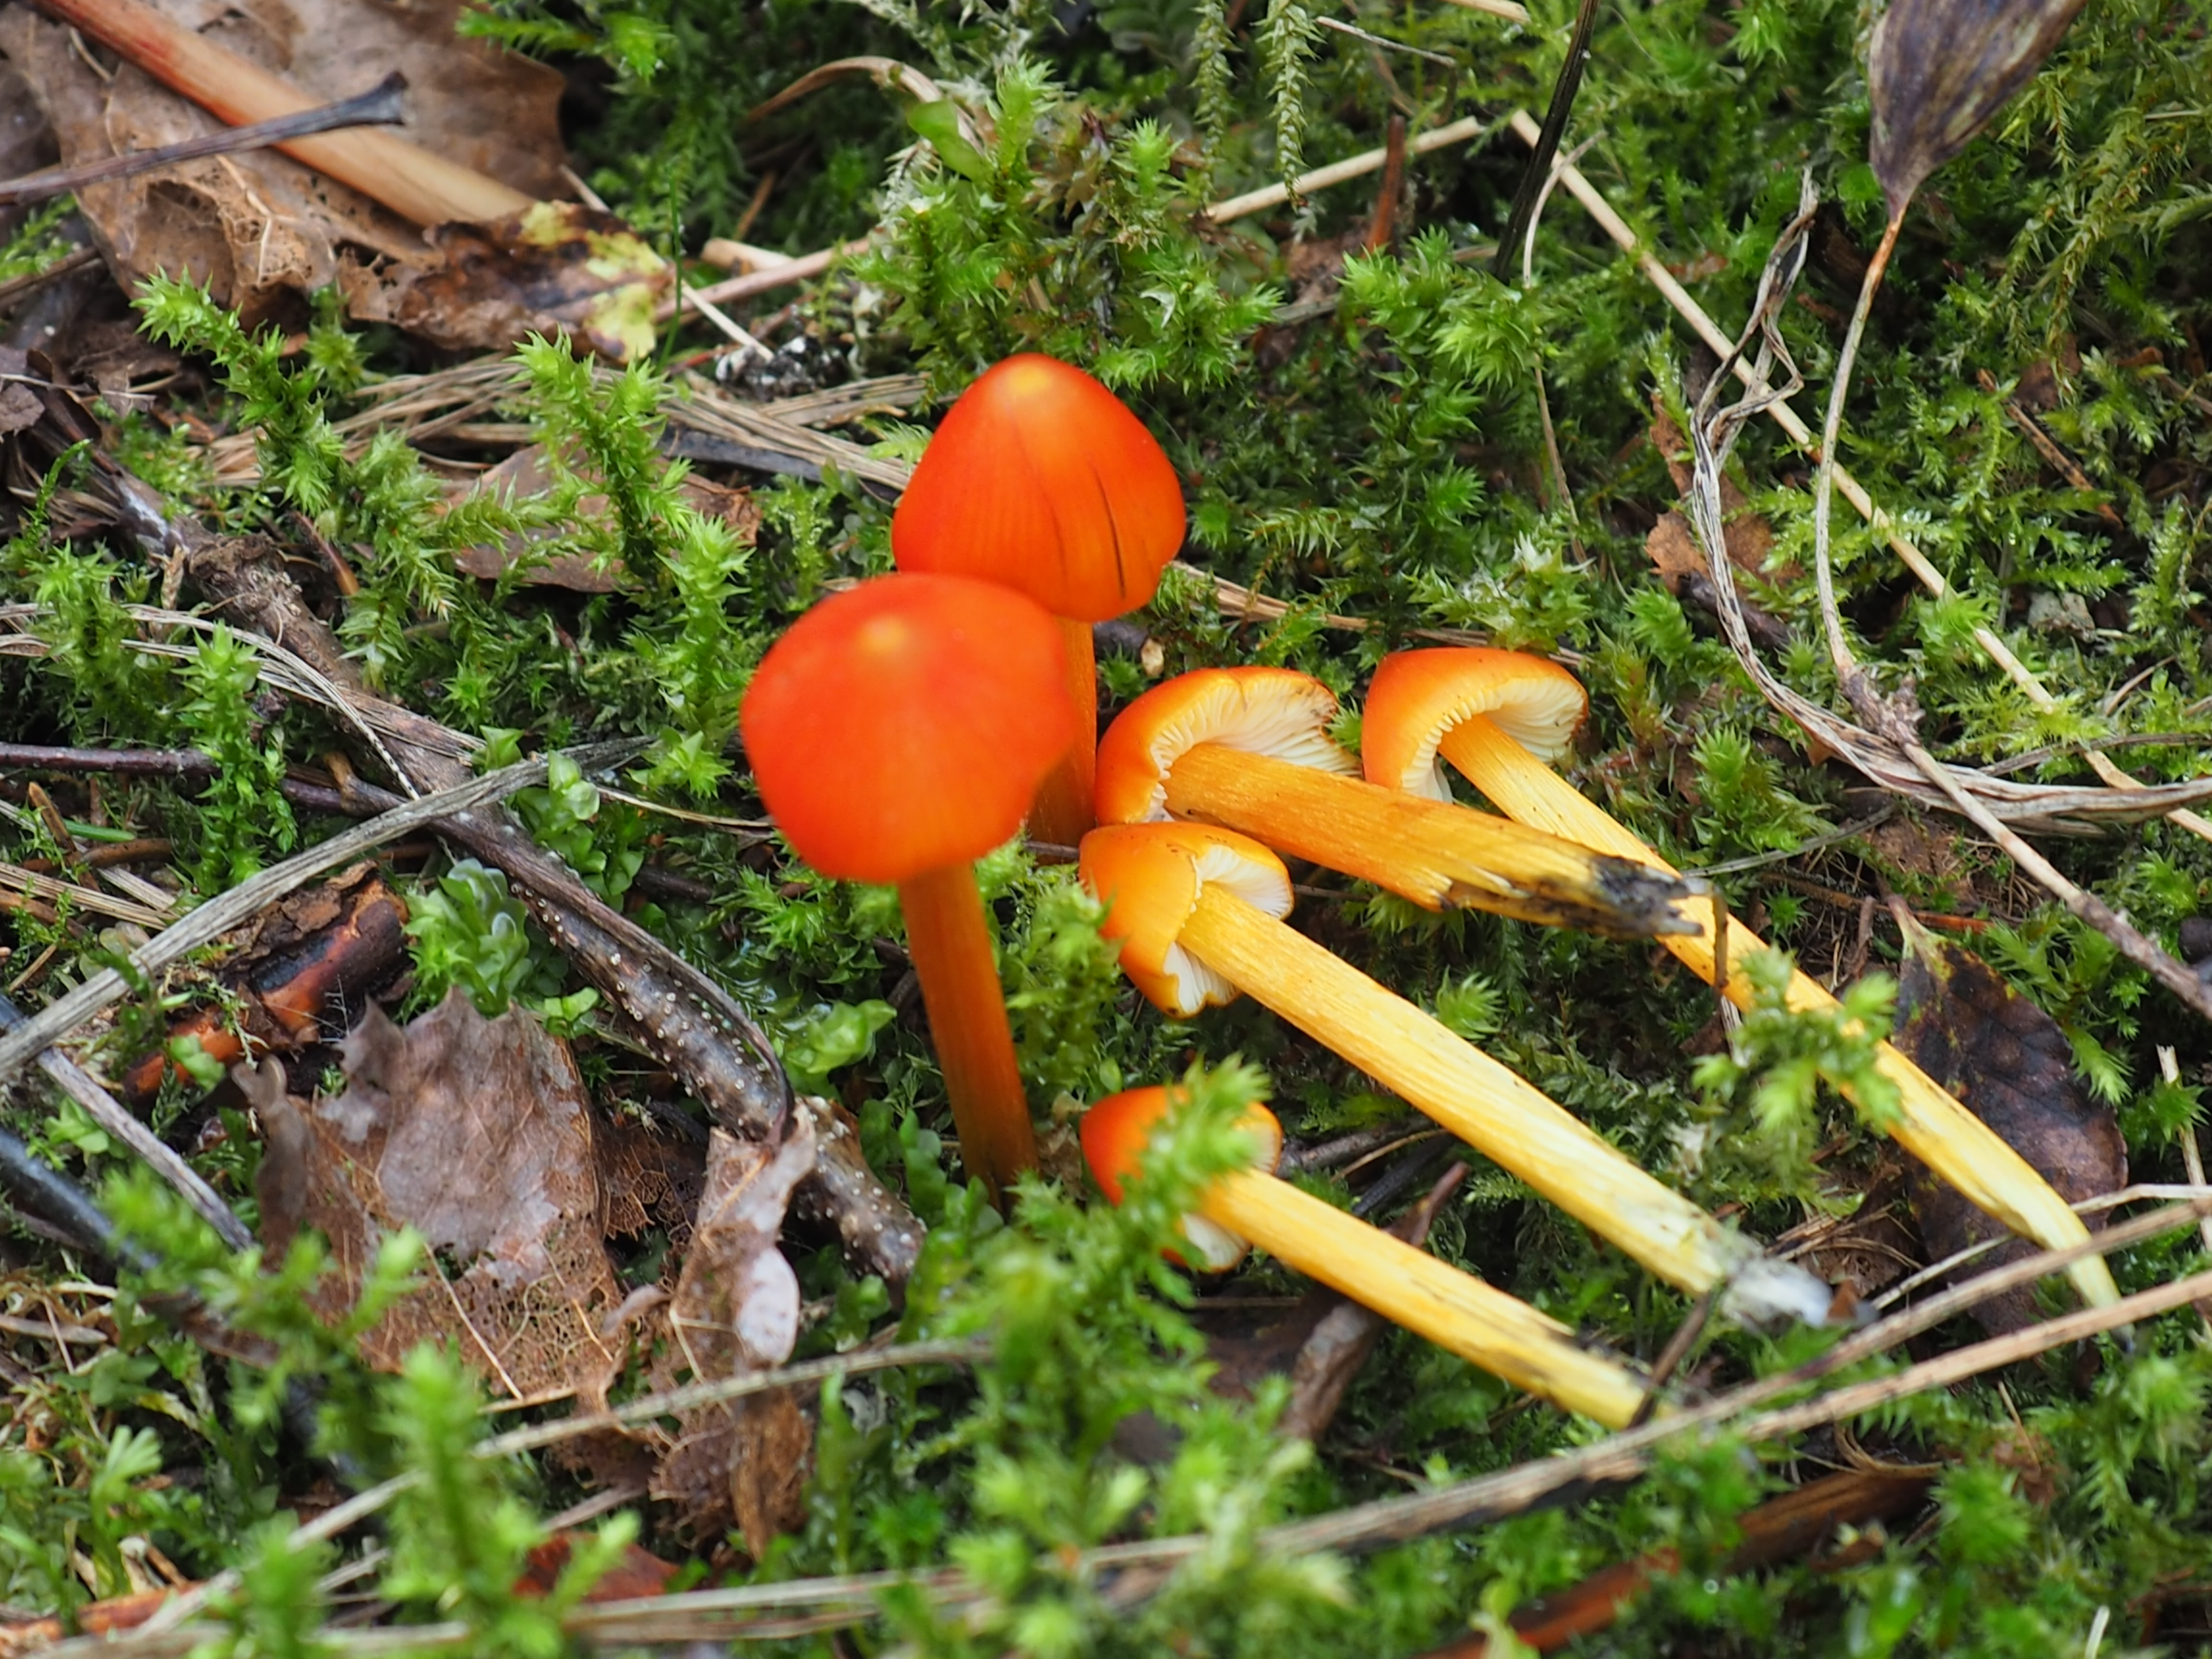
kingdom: Fungi
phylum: Basidiomycota
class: Agaricomycetes
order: Agaricales
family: Hygrophoraceae
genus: Hygrocybe
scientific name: Hygrocybe conica
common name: Blackening wax-cap
